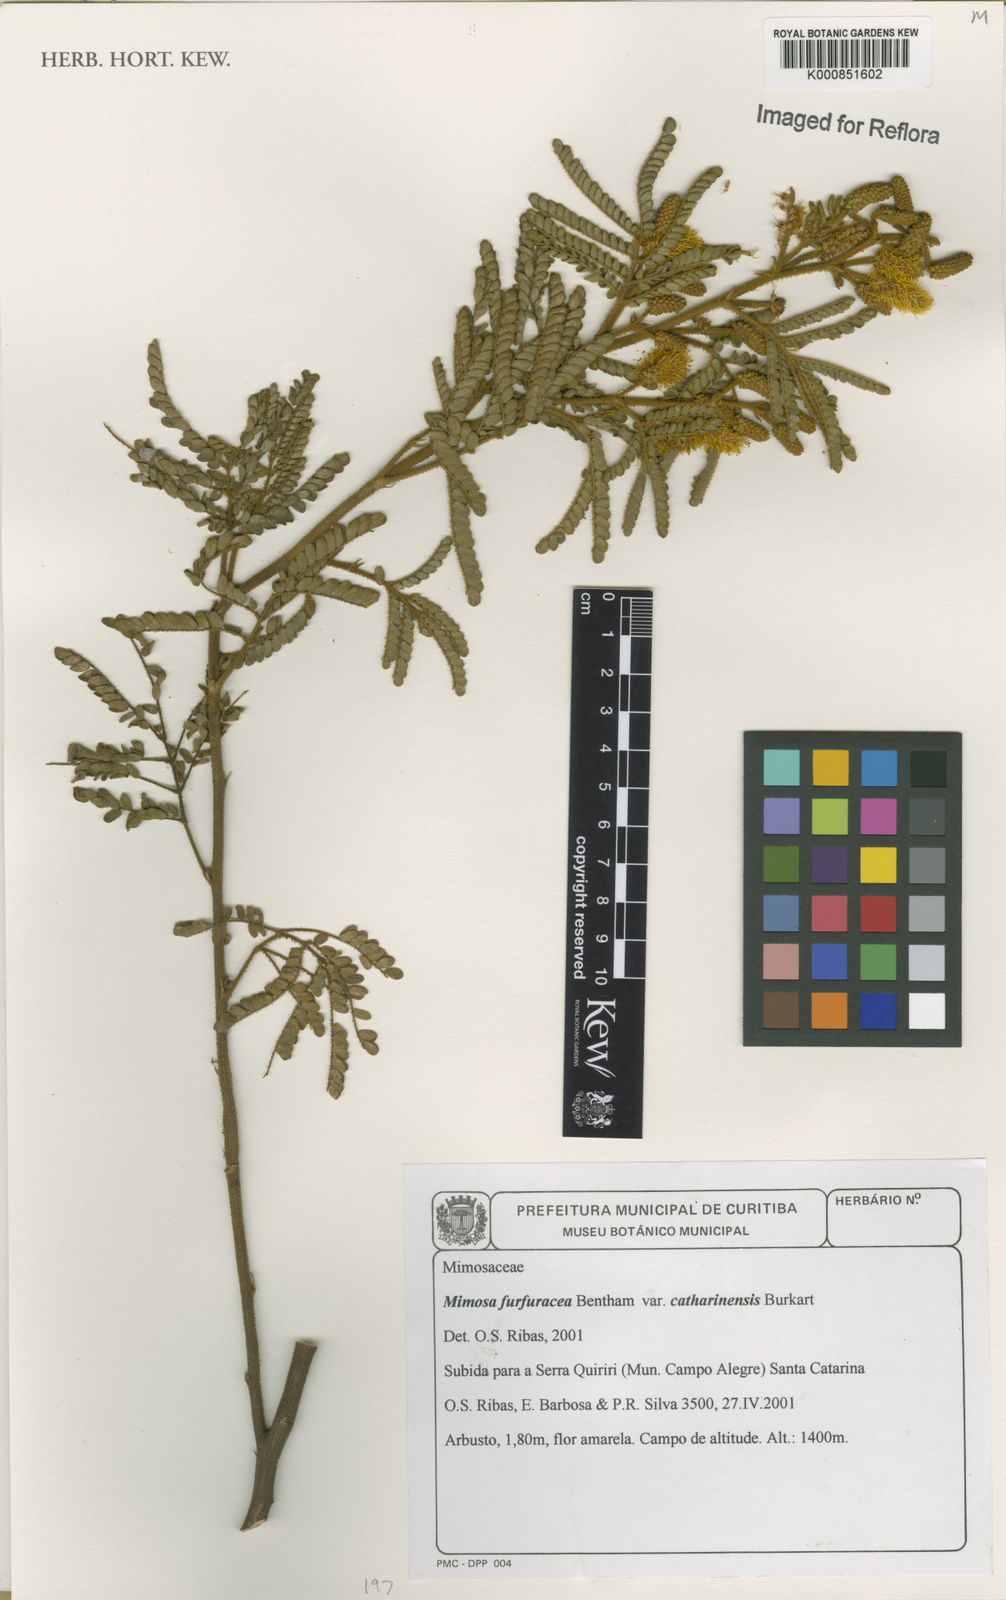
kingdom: Plantae
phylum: Tracheophyta
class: Magnoliopsida
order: Fabales
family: Fabaceae
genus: Mimosa
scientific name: Mimosa furfuracea
